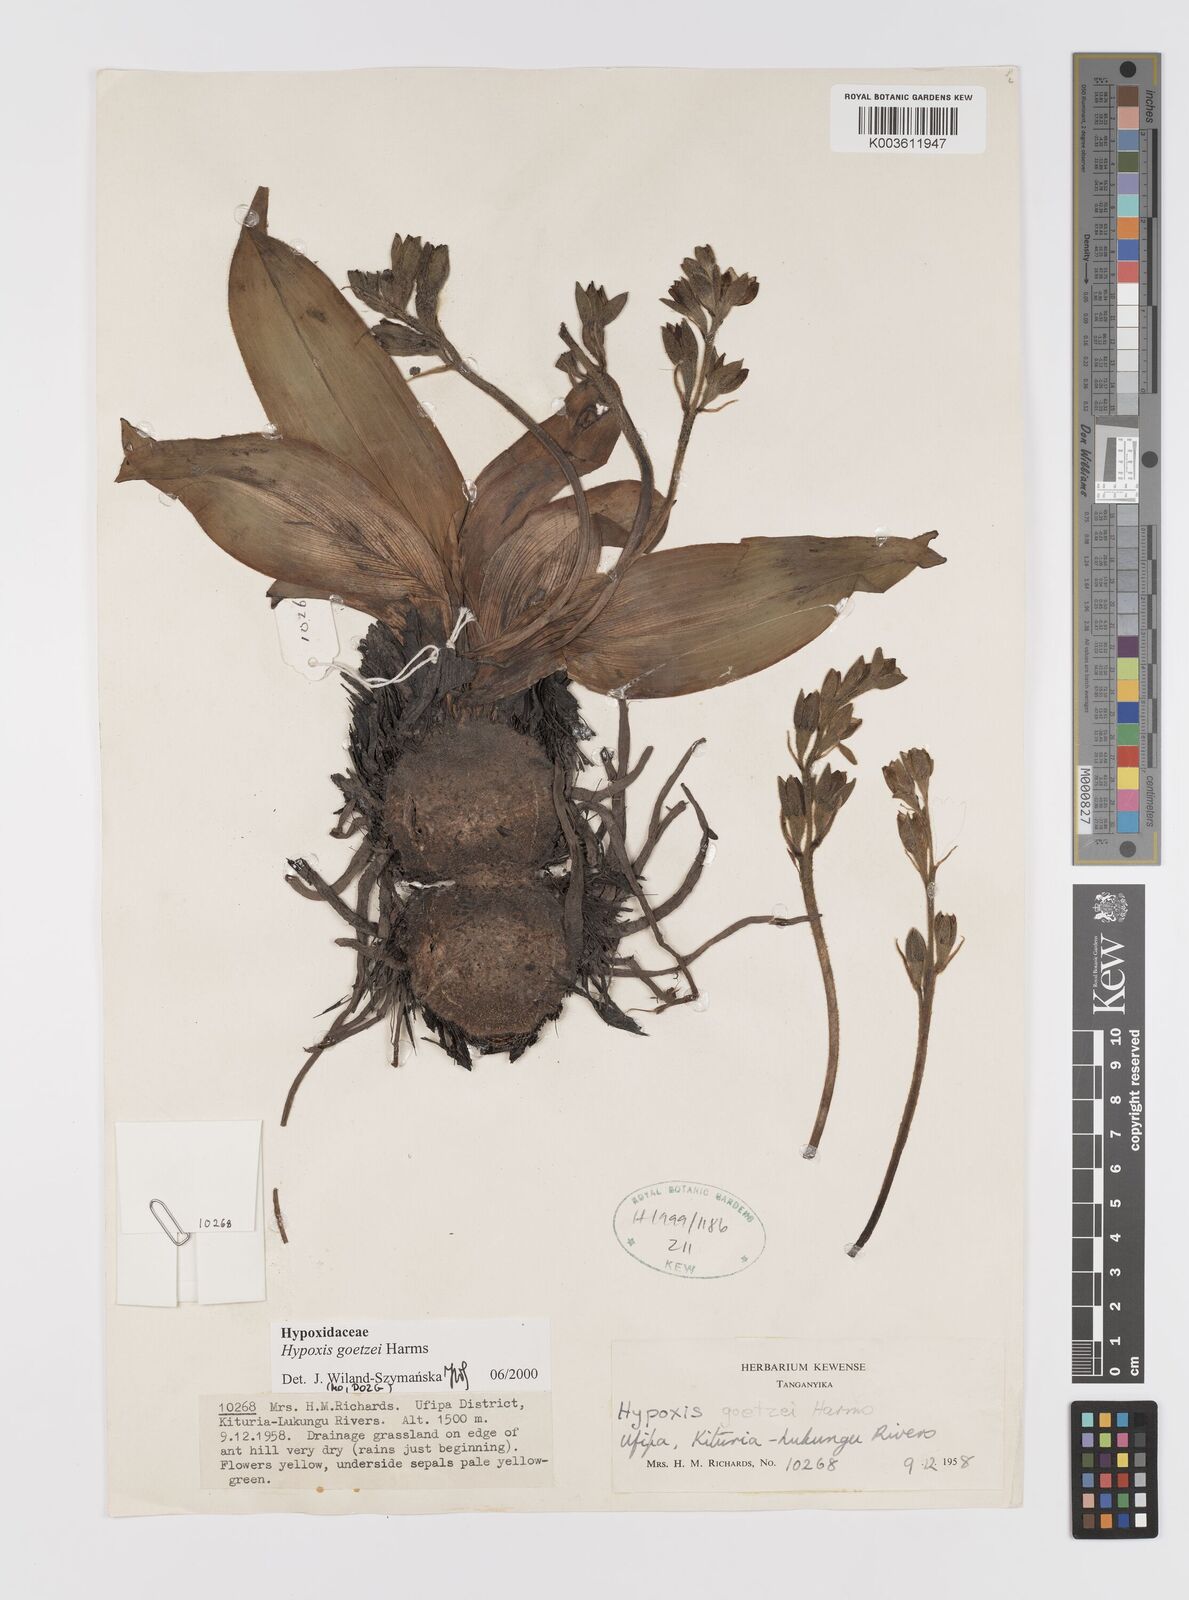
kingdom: Plantae
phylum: Tracheophyta
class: Liliopsida
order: Asparagales
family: Hypoxidaceae
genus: Hypoxis
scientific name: Hypoxis goetzei
